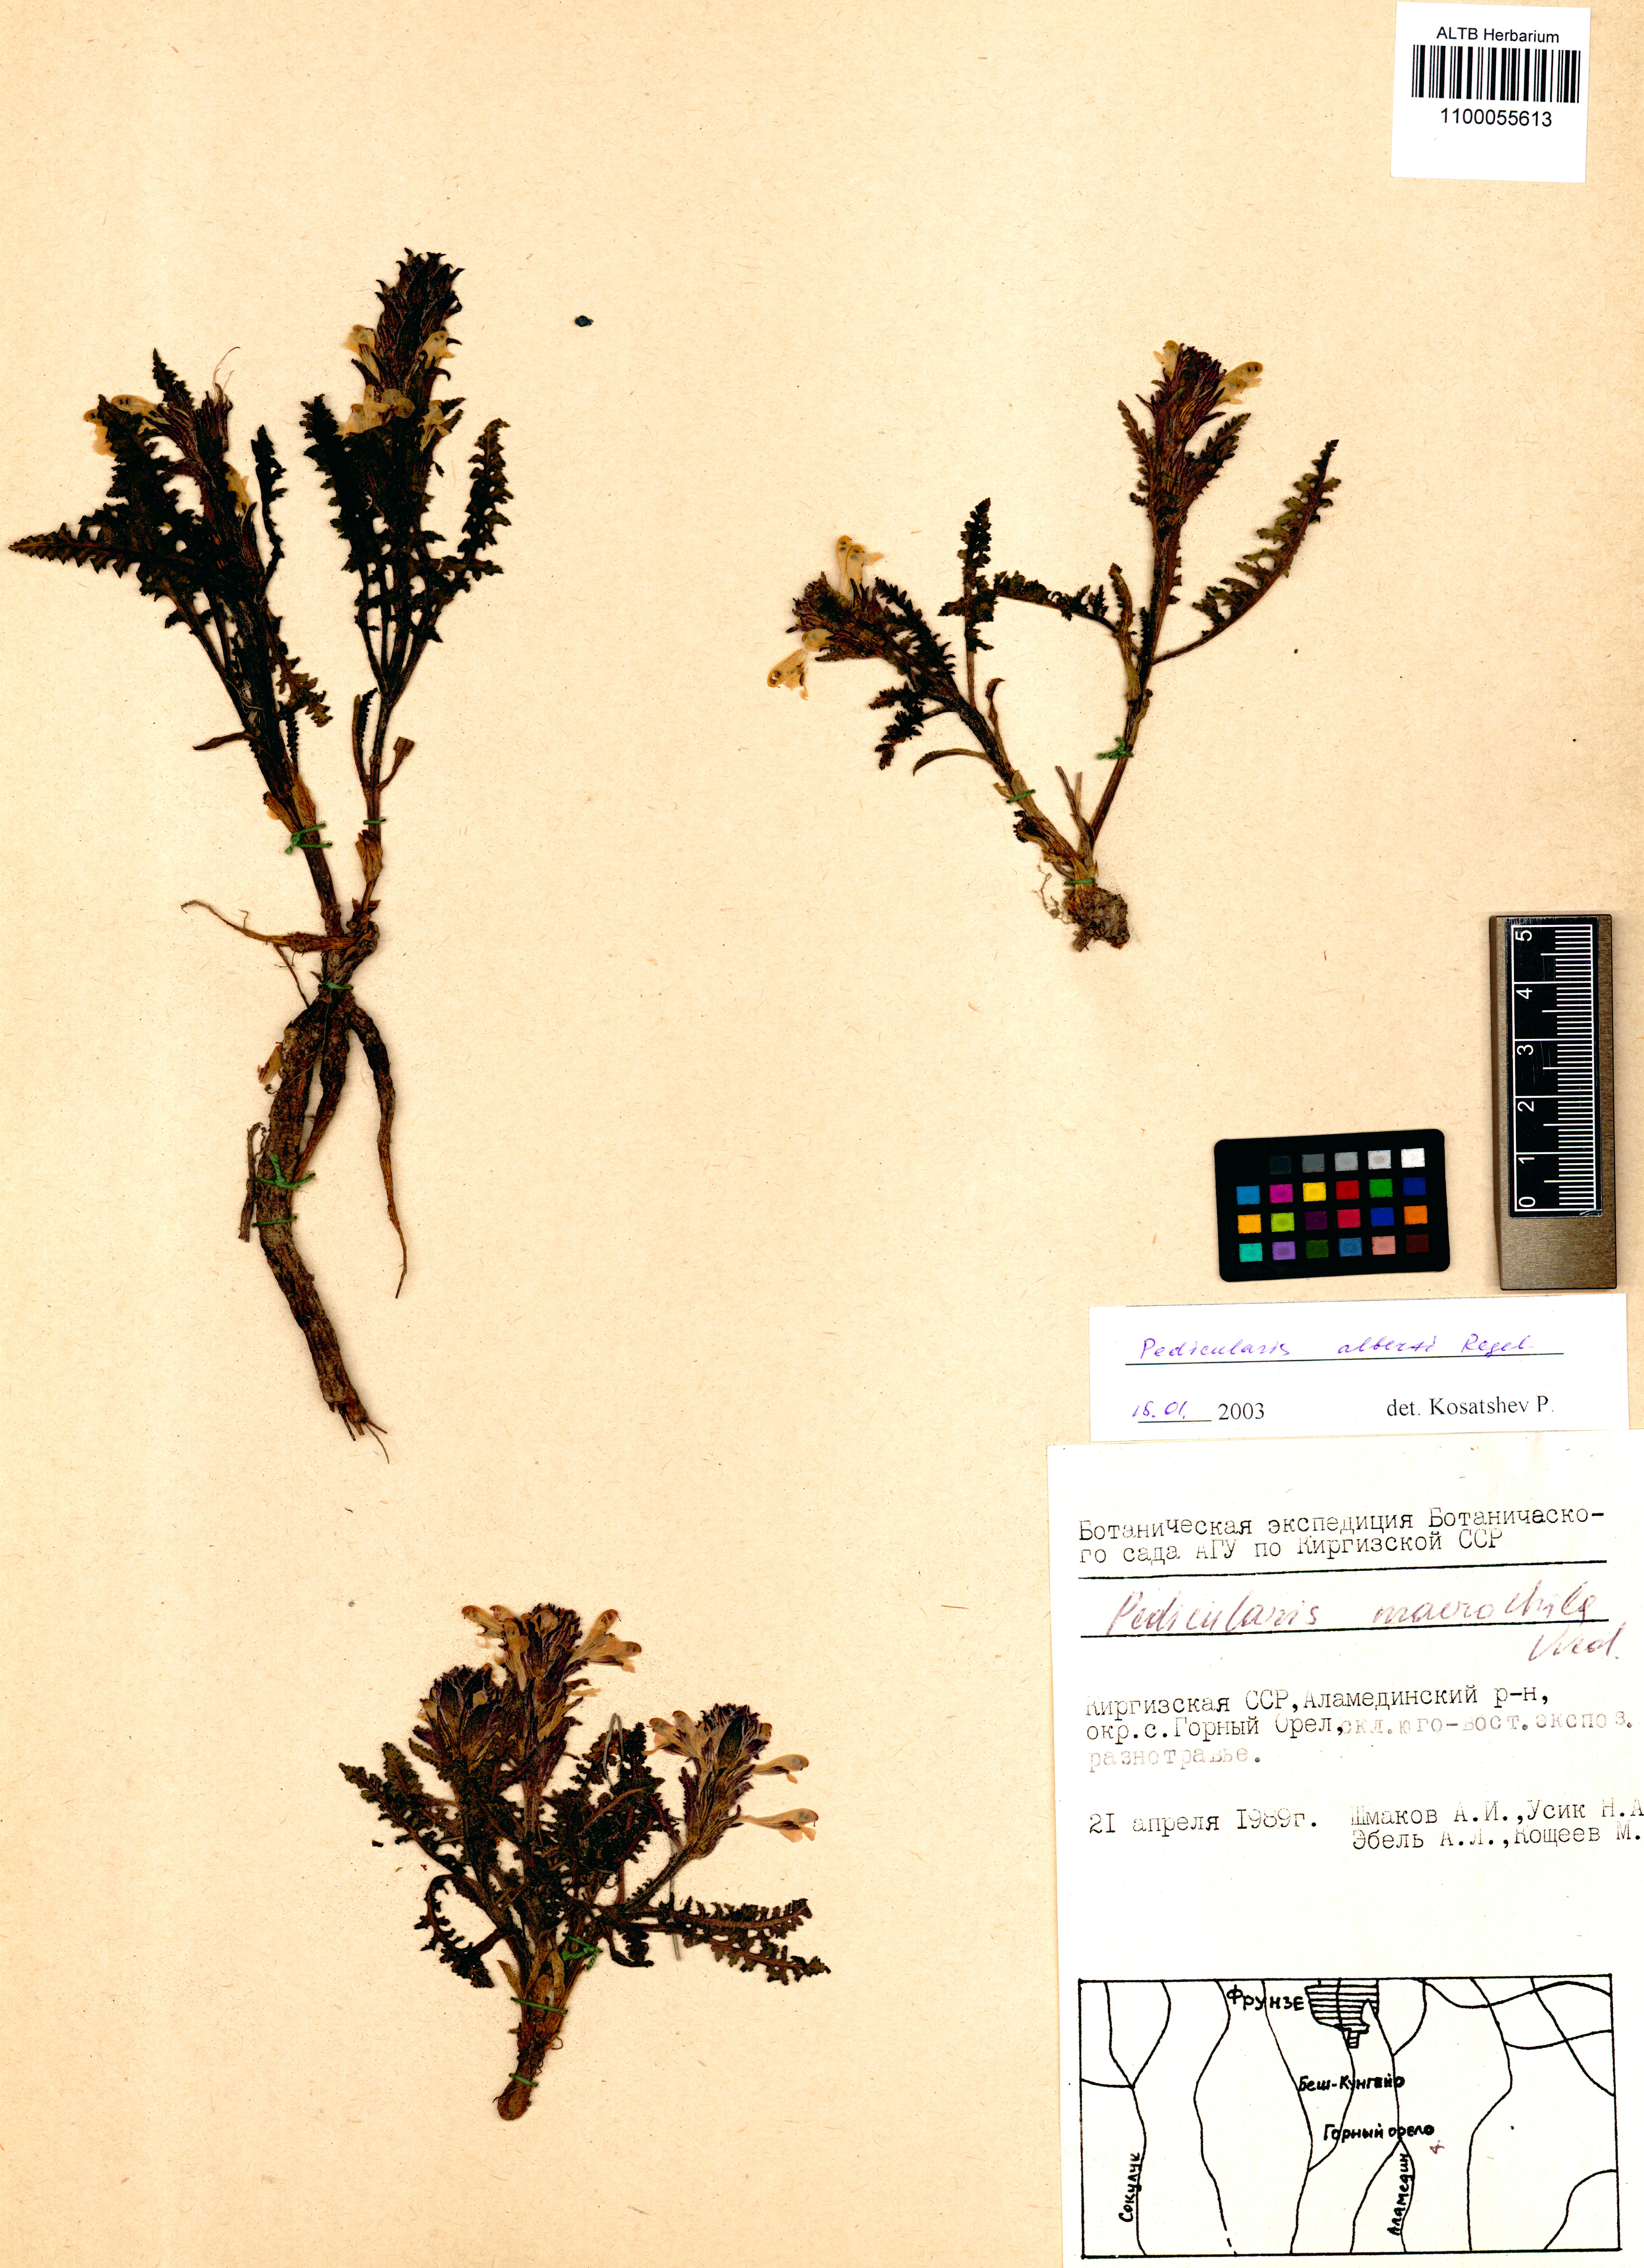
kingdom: Plantae
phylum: Tracheophyta
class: Magnoliopsida
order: Lamiales
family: Orobanchaceae
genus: Pedicularis
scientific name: Pedicularis alberti
